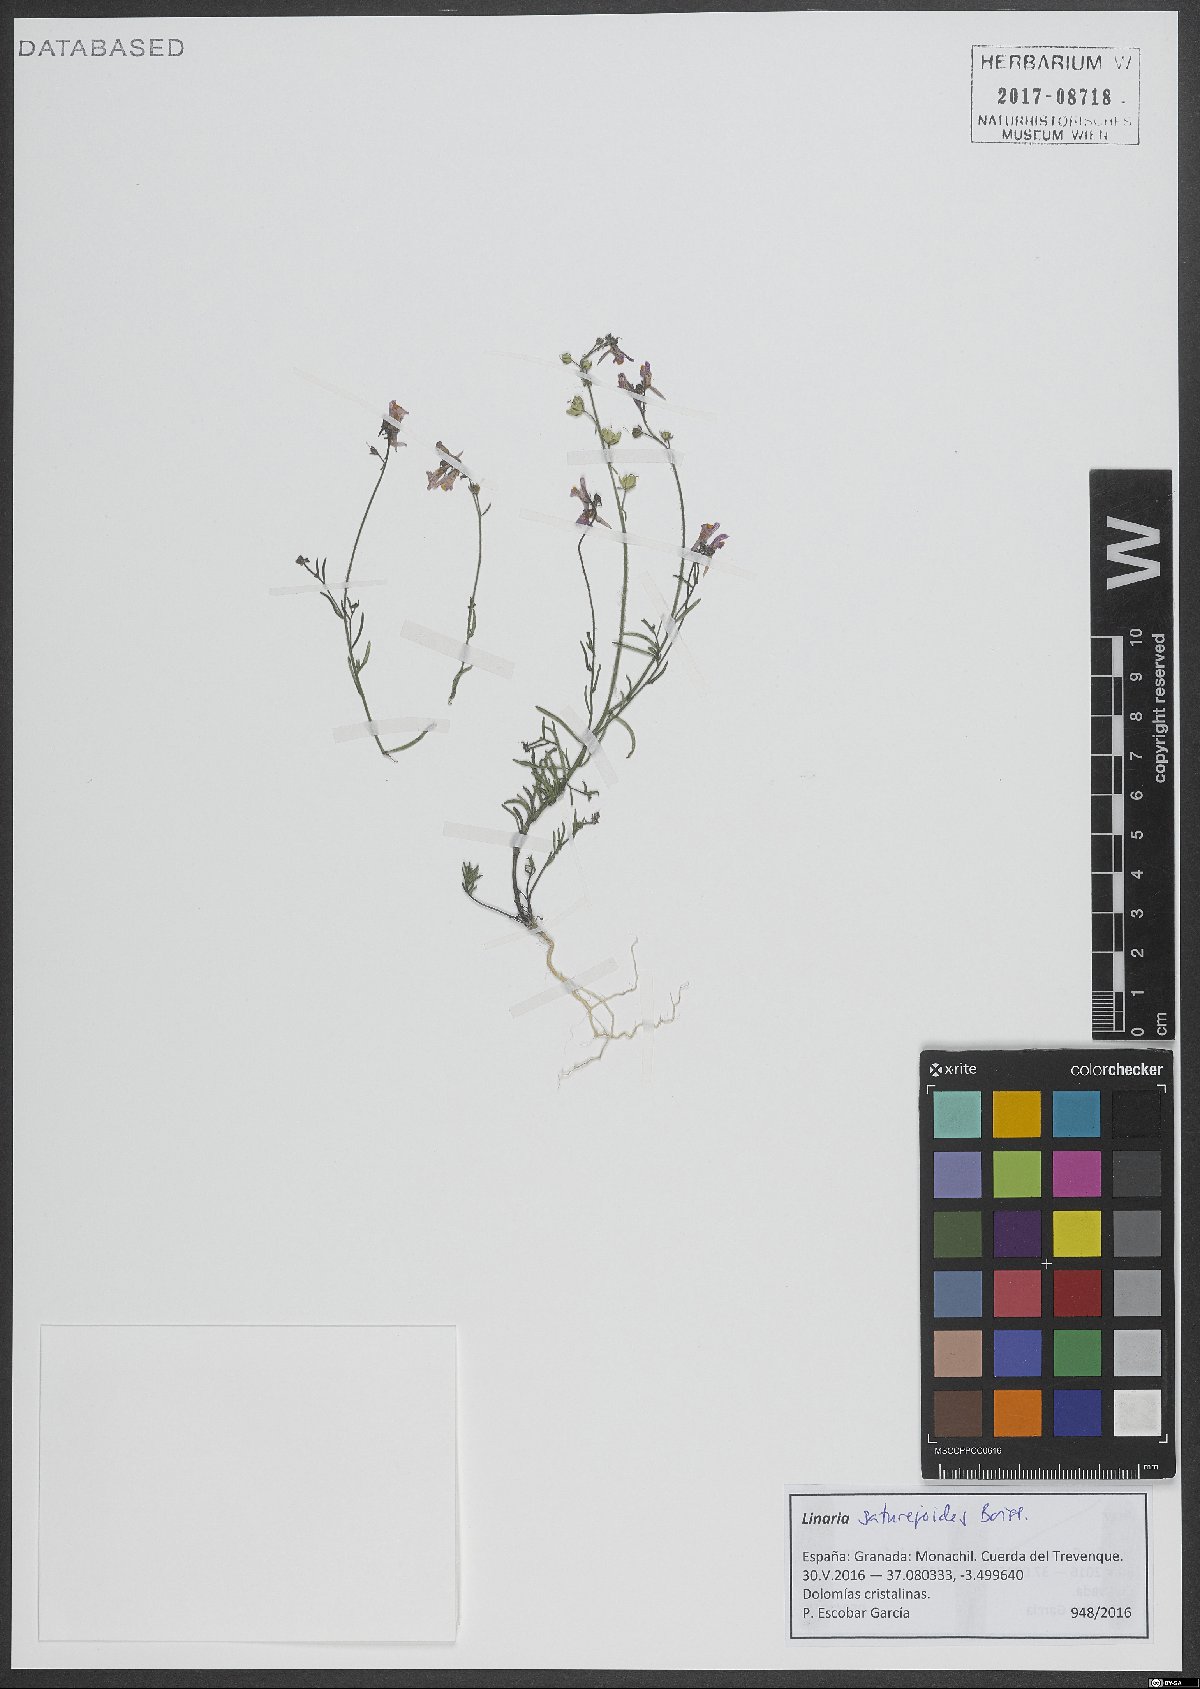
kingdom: Plantae
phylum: Tracheophyta
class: Magnoliopsida
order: Lamiales
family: Plantaginaceae
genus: Linaria
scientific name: Linaria saturejoides
